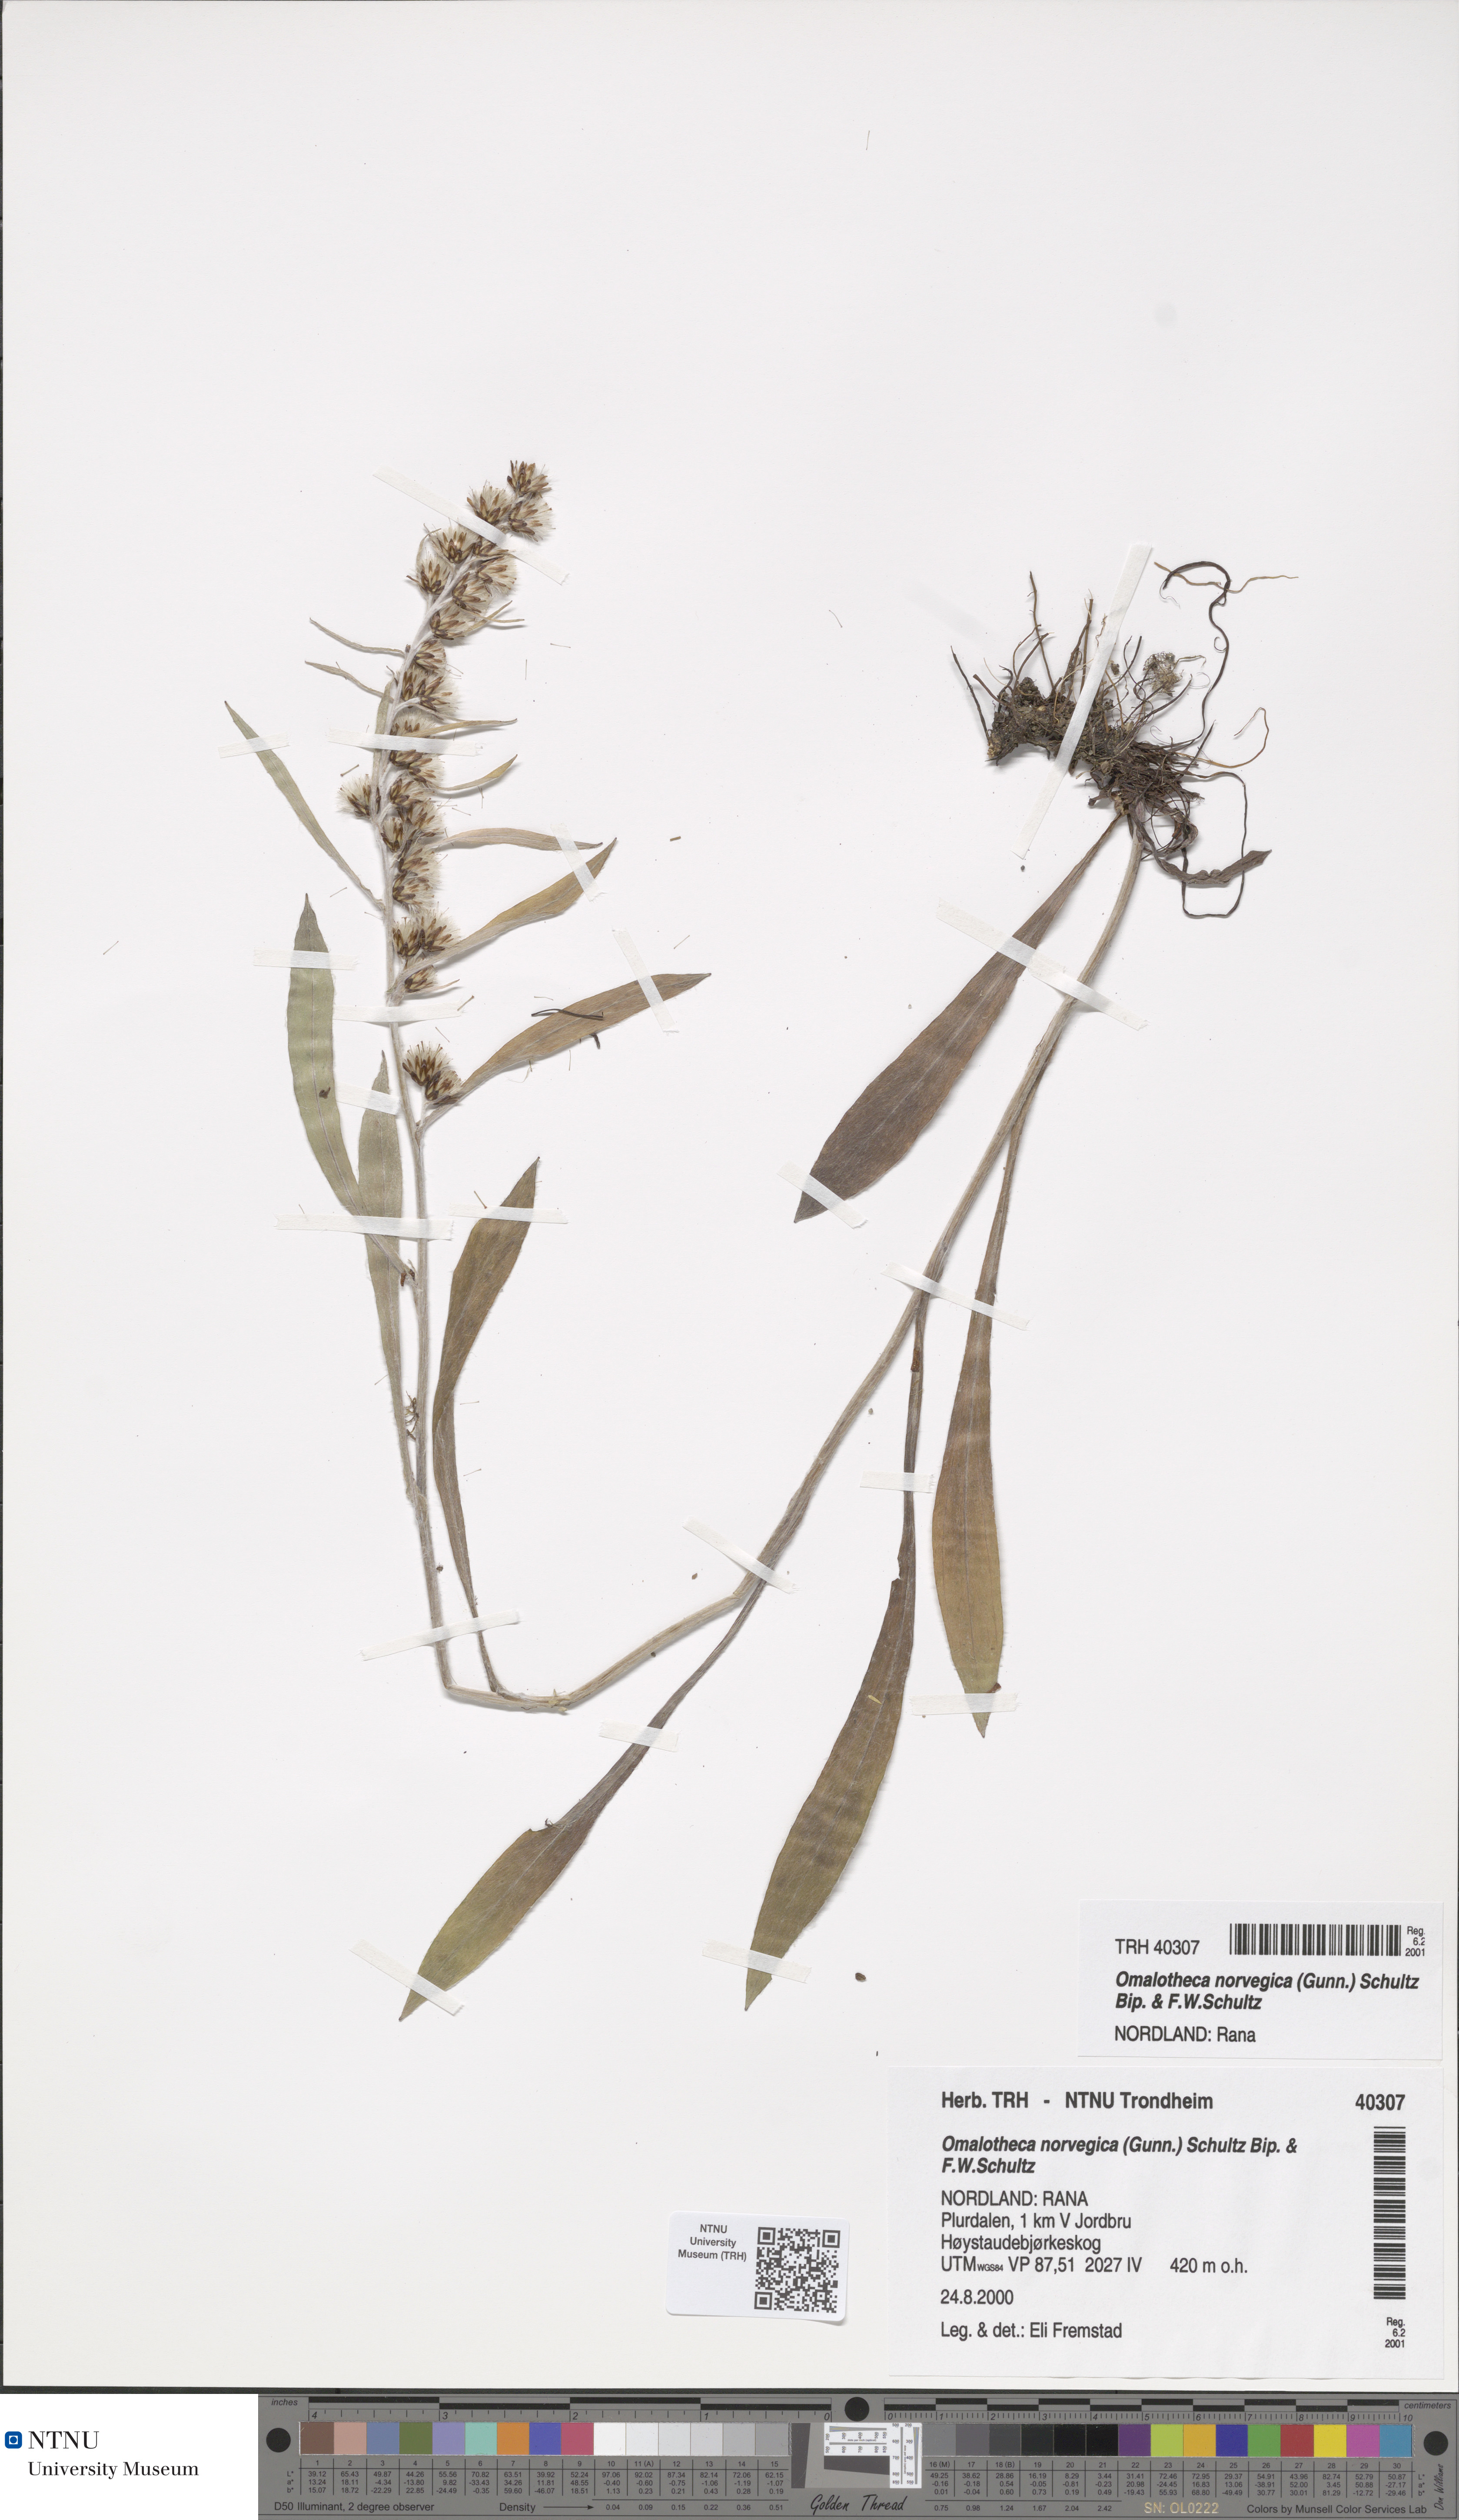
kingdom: Plantae
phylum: Tracheophyta
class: Magnoliopsida
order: Asterales
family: Asteraceae
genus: Omalotheca
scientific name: Omalotheca norvegica
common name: Norwegian arctic-cudweed
